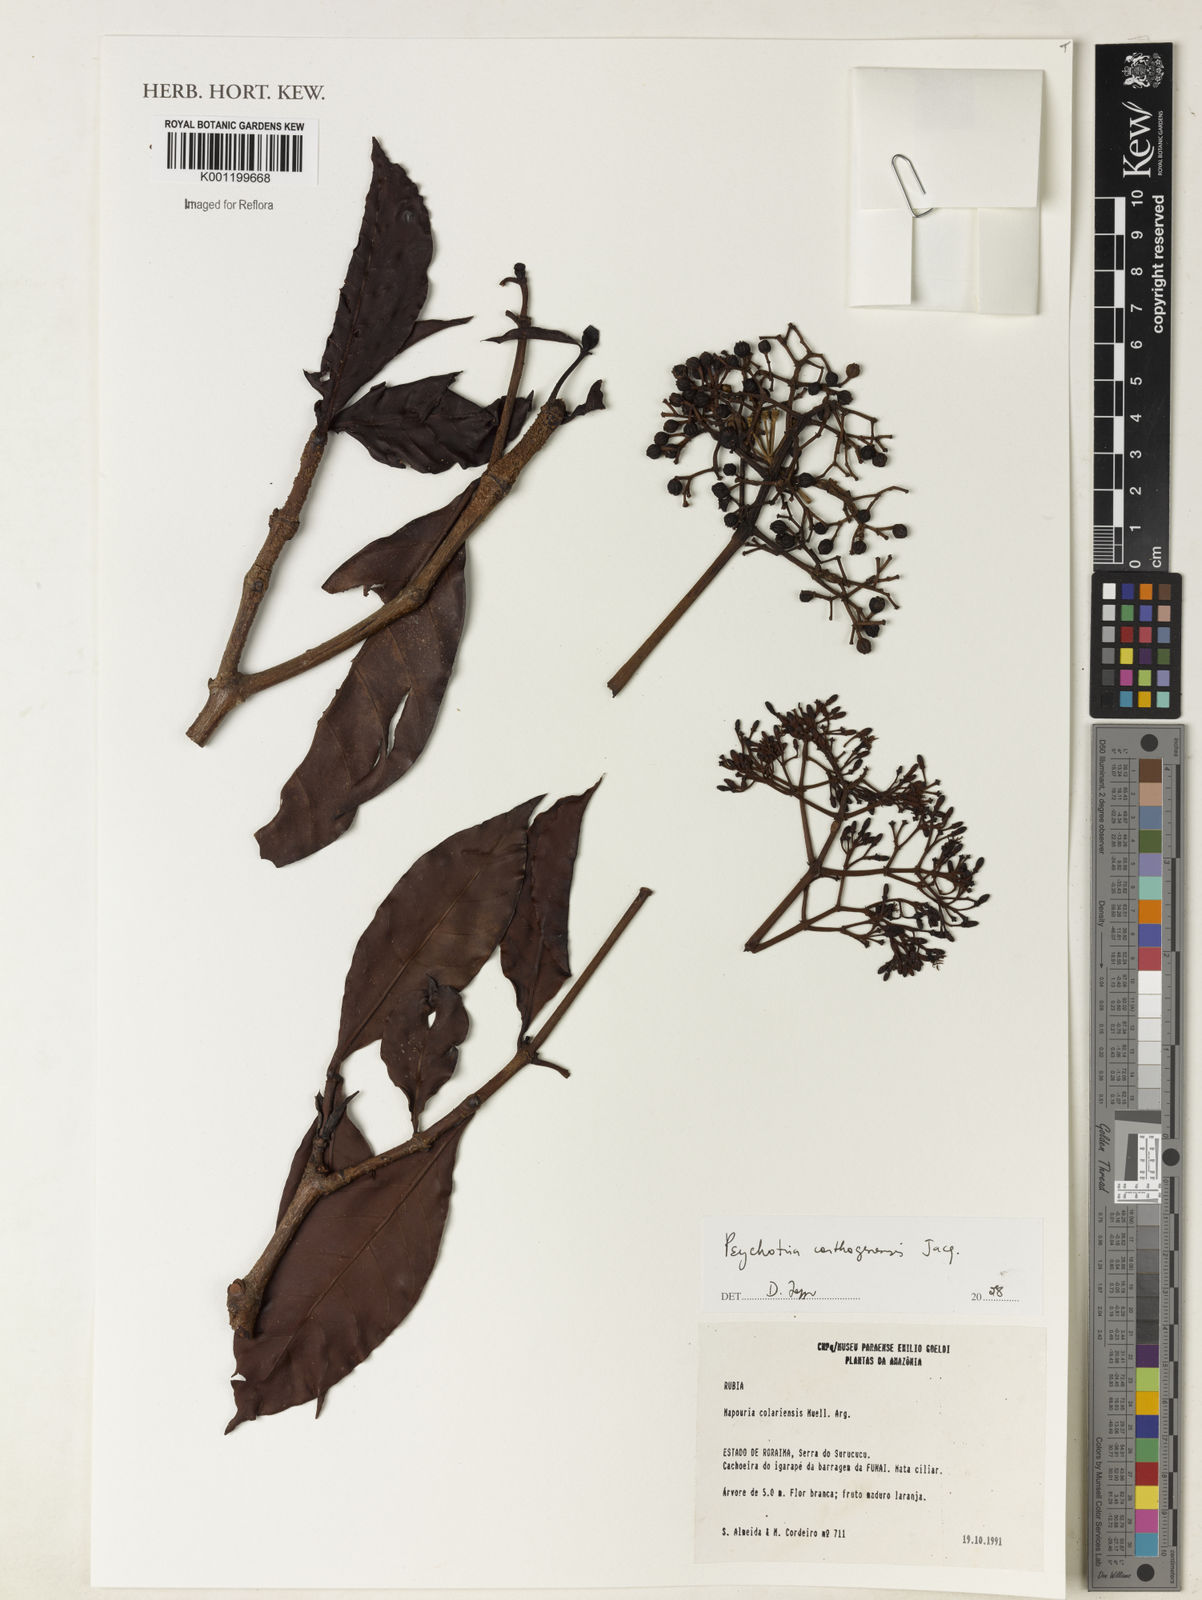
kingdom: Plantae
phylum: Tracheophyta
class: Magnoliopsida
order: Gentianales
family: Rubiaceae
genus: Psychotria
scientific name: Psychotria carthagenensis
